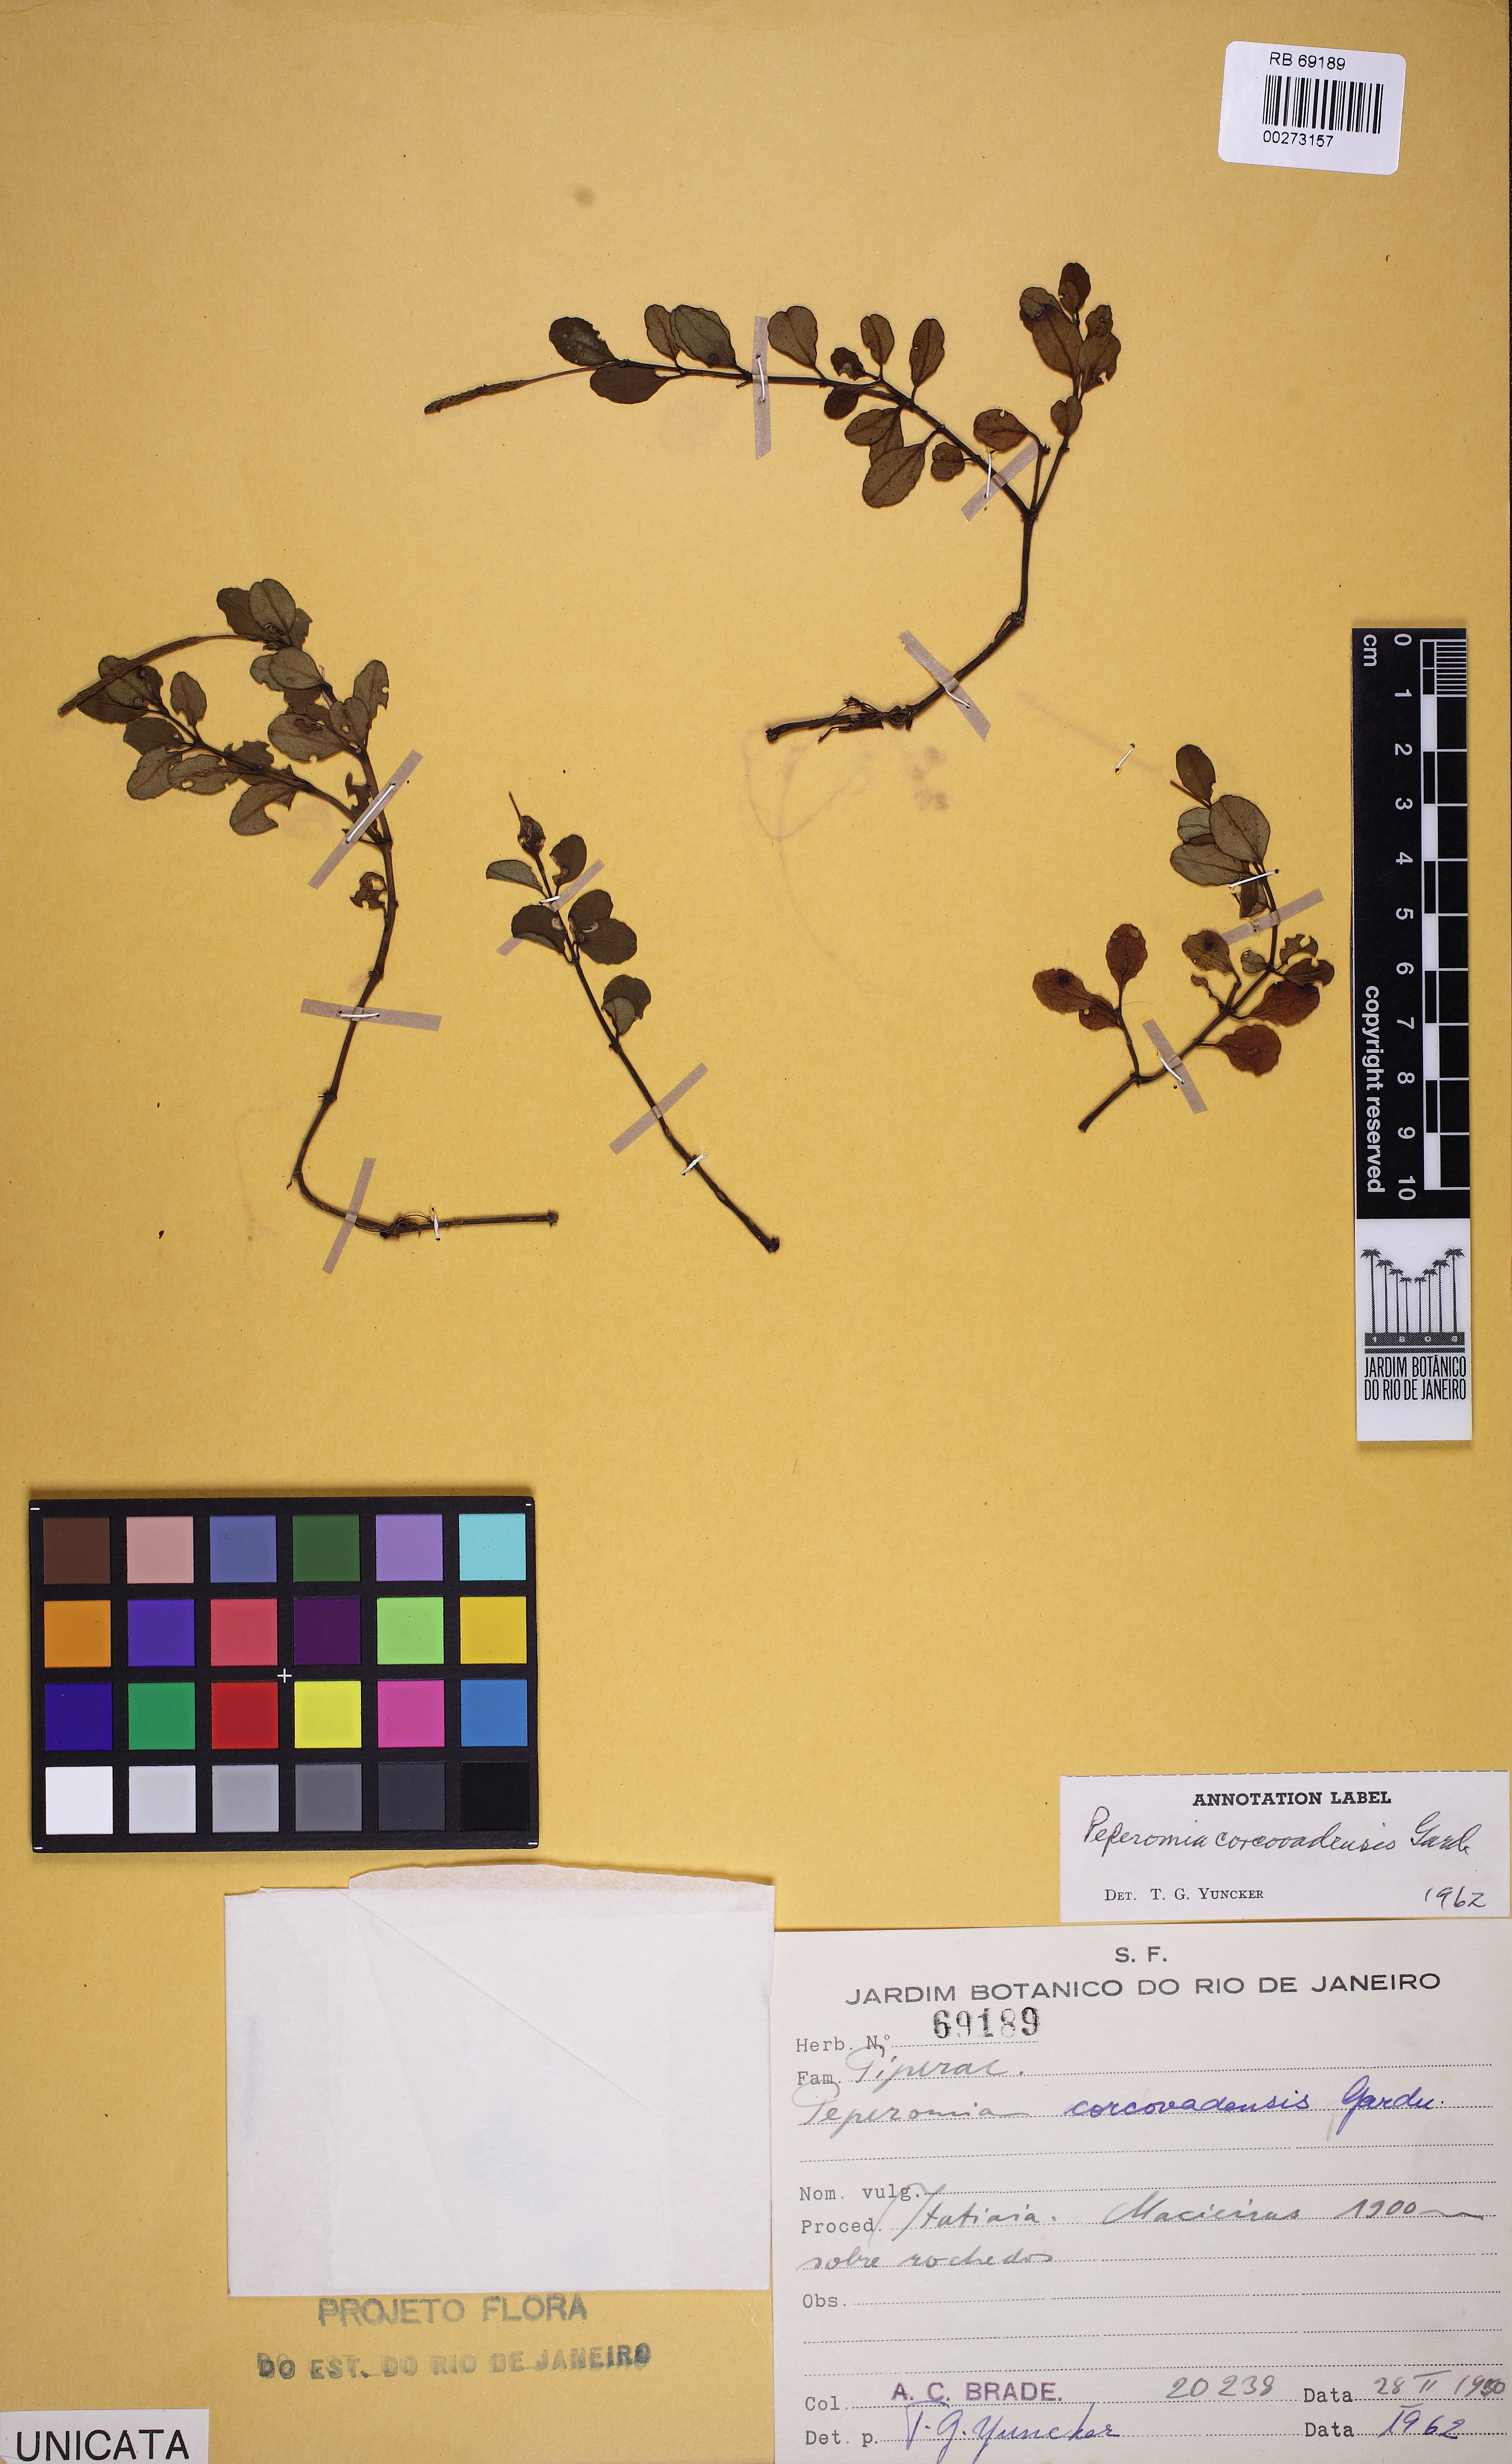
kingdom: Plantae
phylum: Tracheophyta
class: Magnoliopsida
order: Piperales
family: Piperaceae
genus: Peperomia
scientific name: Peperomia corcovadensis
